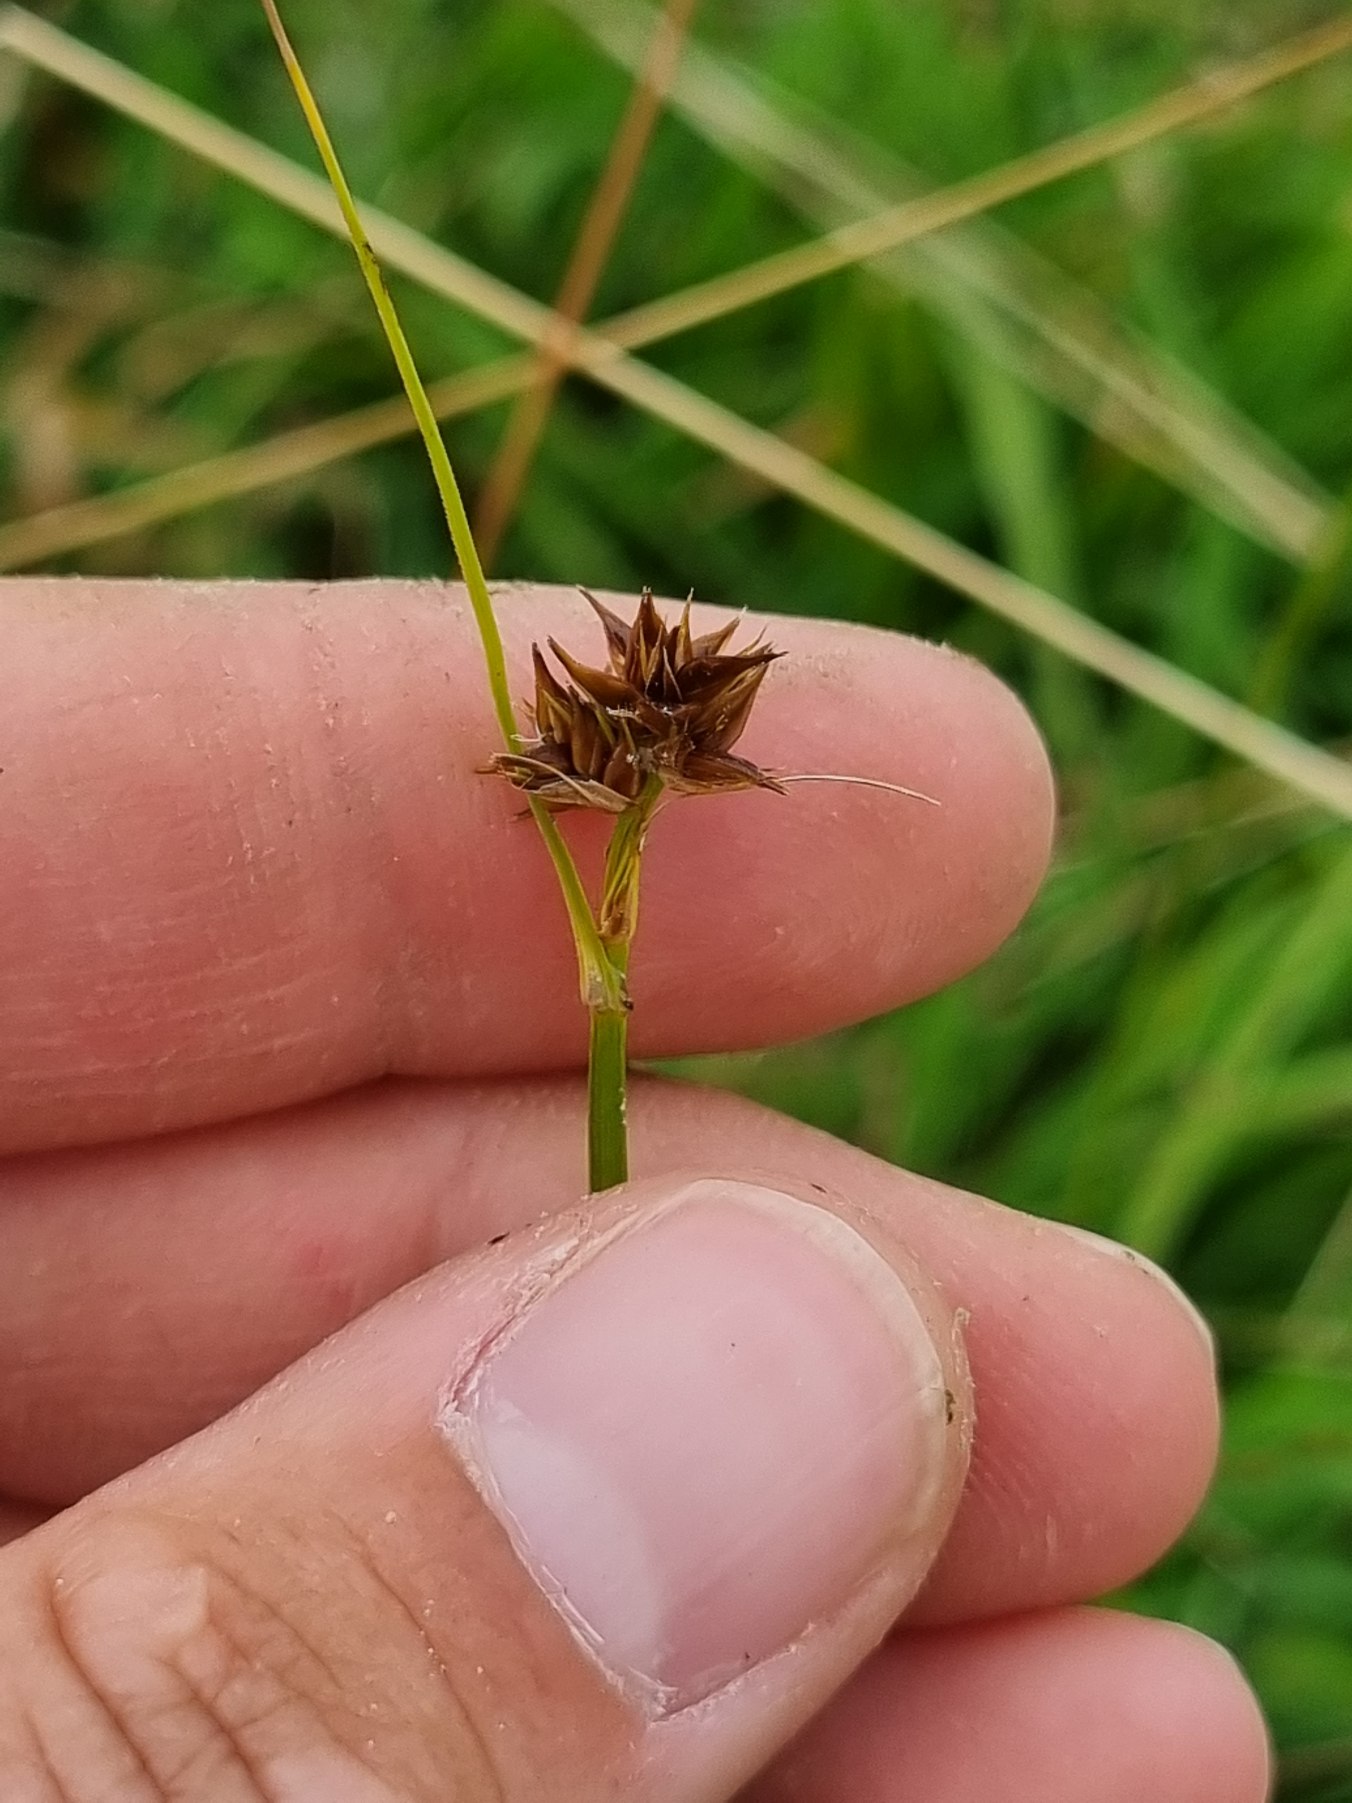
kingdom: Plantae
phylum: Tracheophyta
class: Liliopsida
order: Poales
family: Cyperaceae
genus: Carex
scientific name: Carex echinata
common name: Stjerne-star
